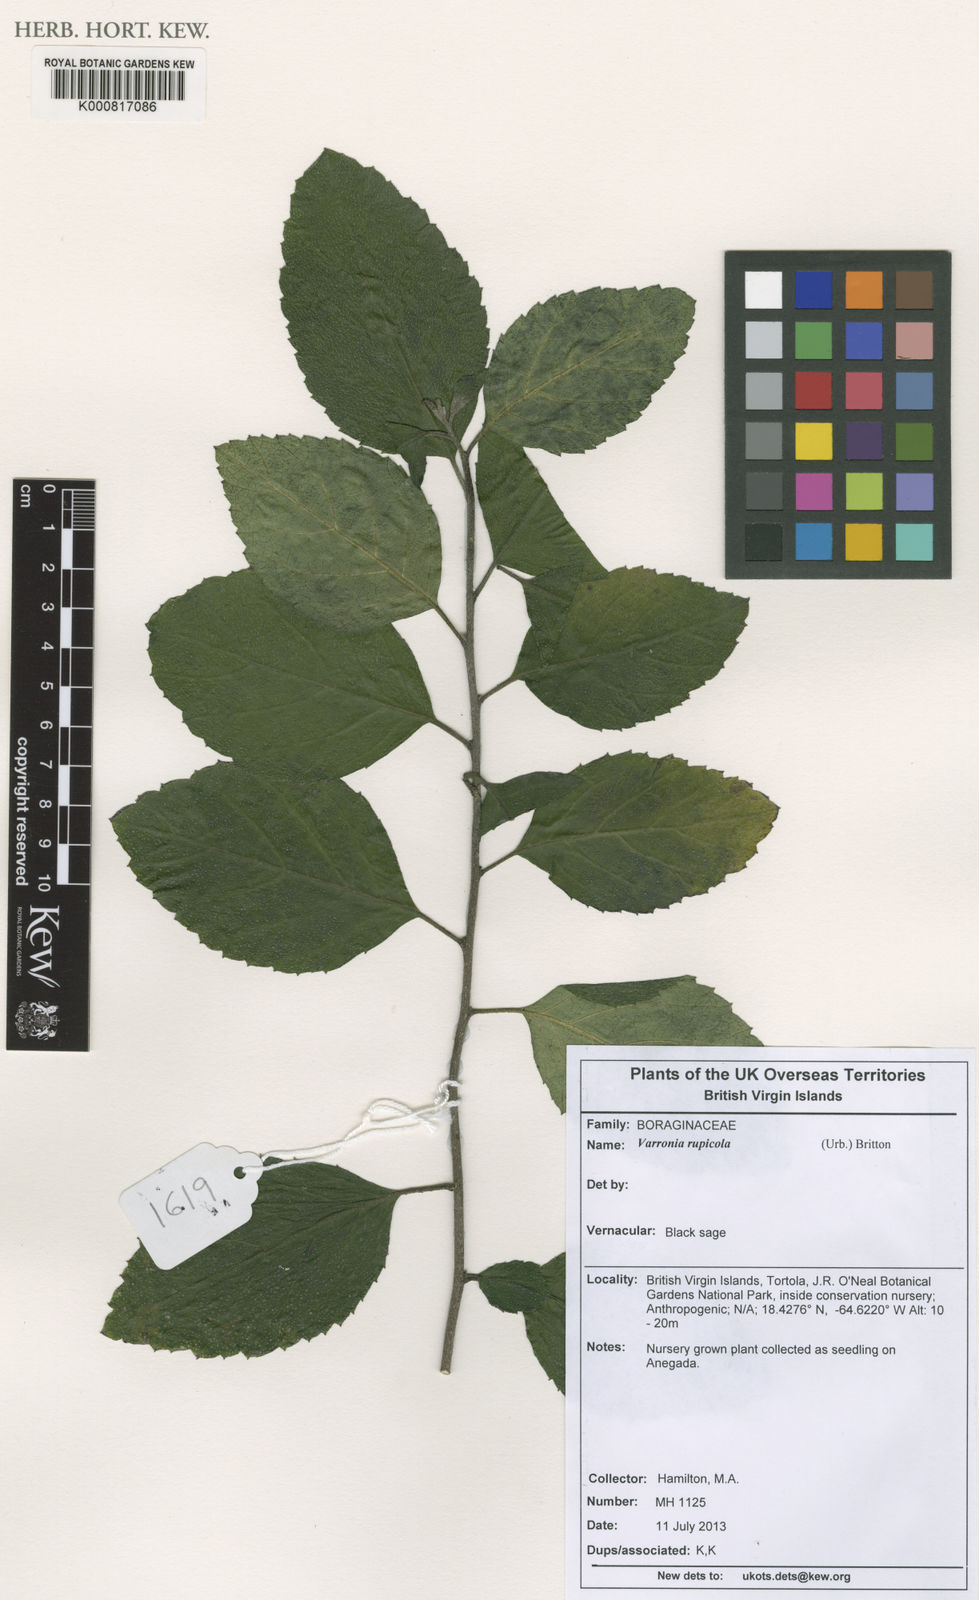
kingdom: Plantae
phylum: Tracheophyta
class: Magnoliopsida
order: Boraginales
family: Cordiaceae
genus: Varronia
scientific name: Varronia rupicola
